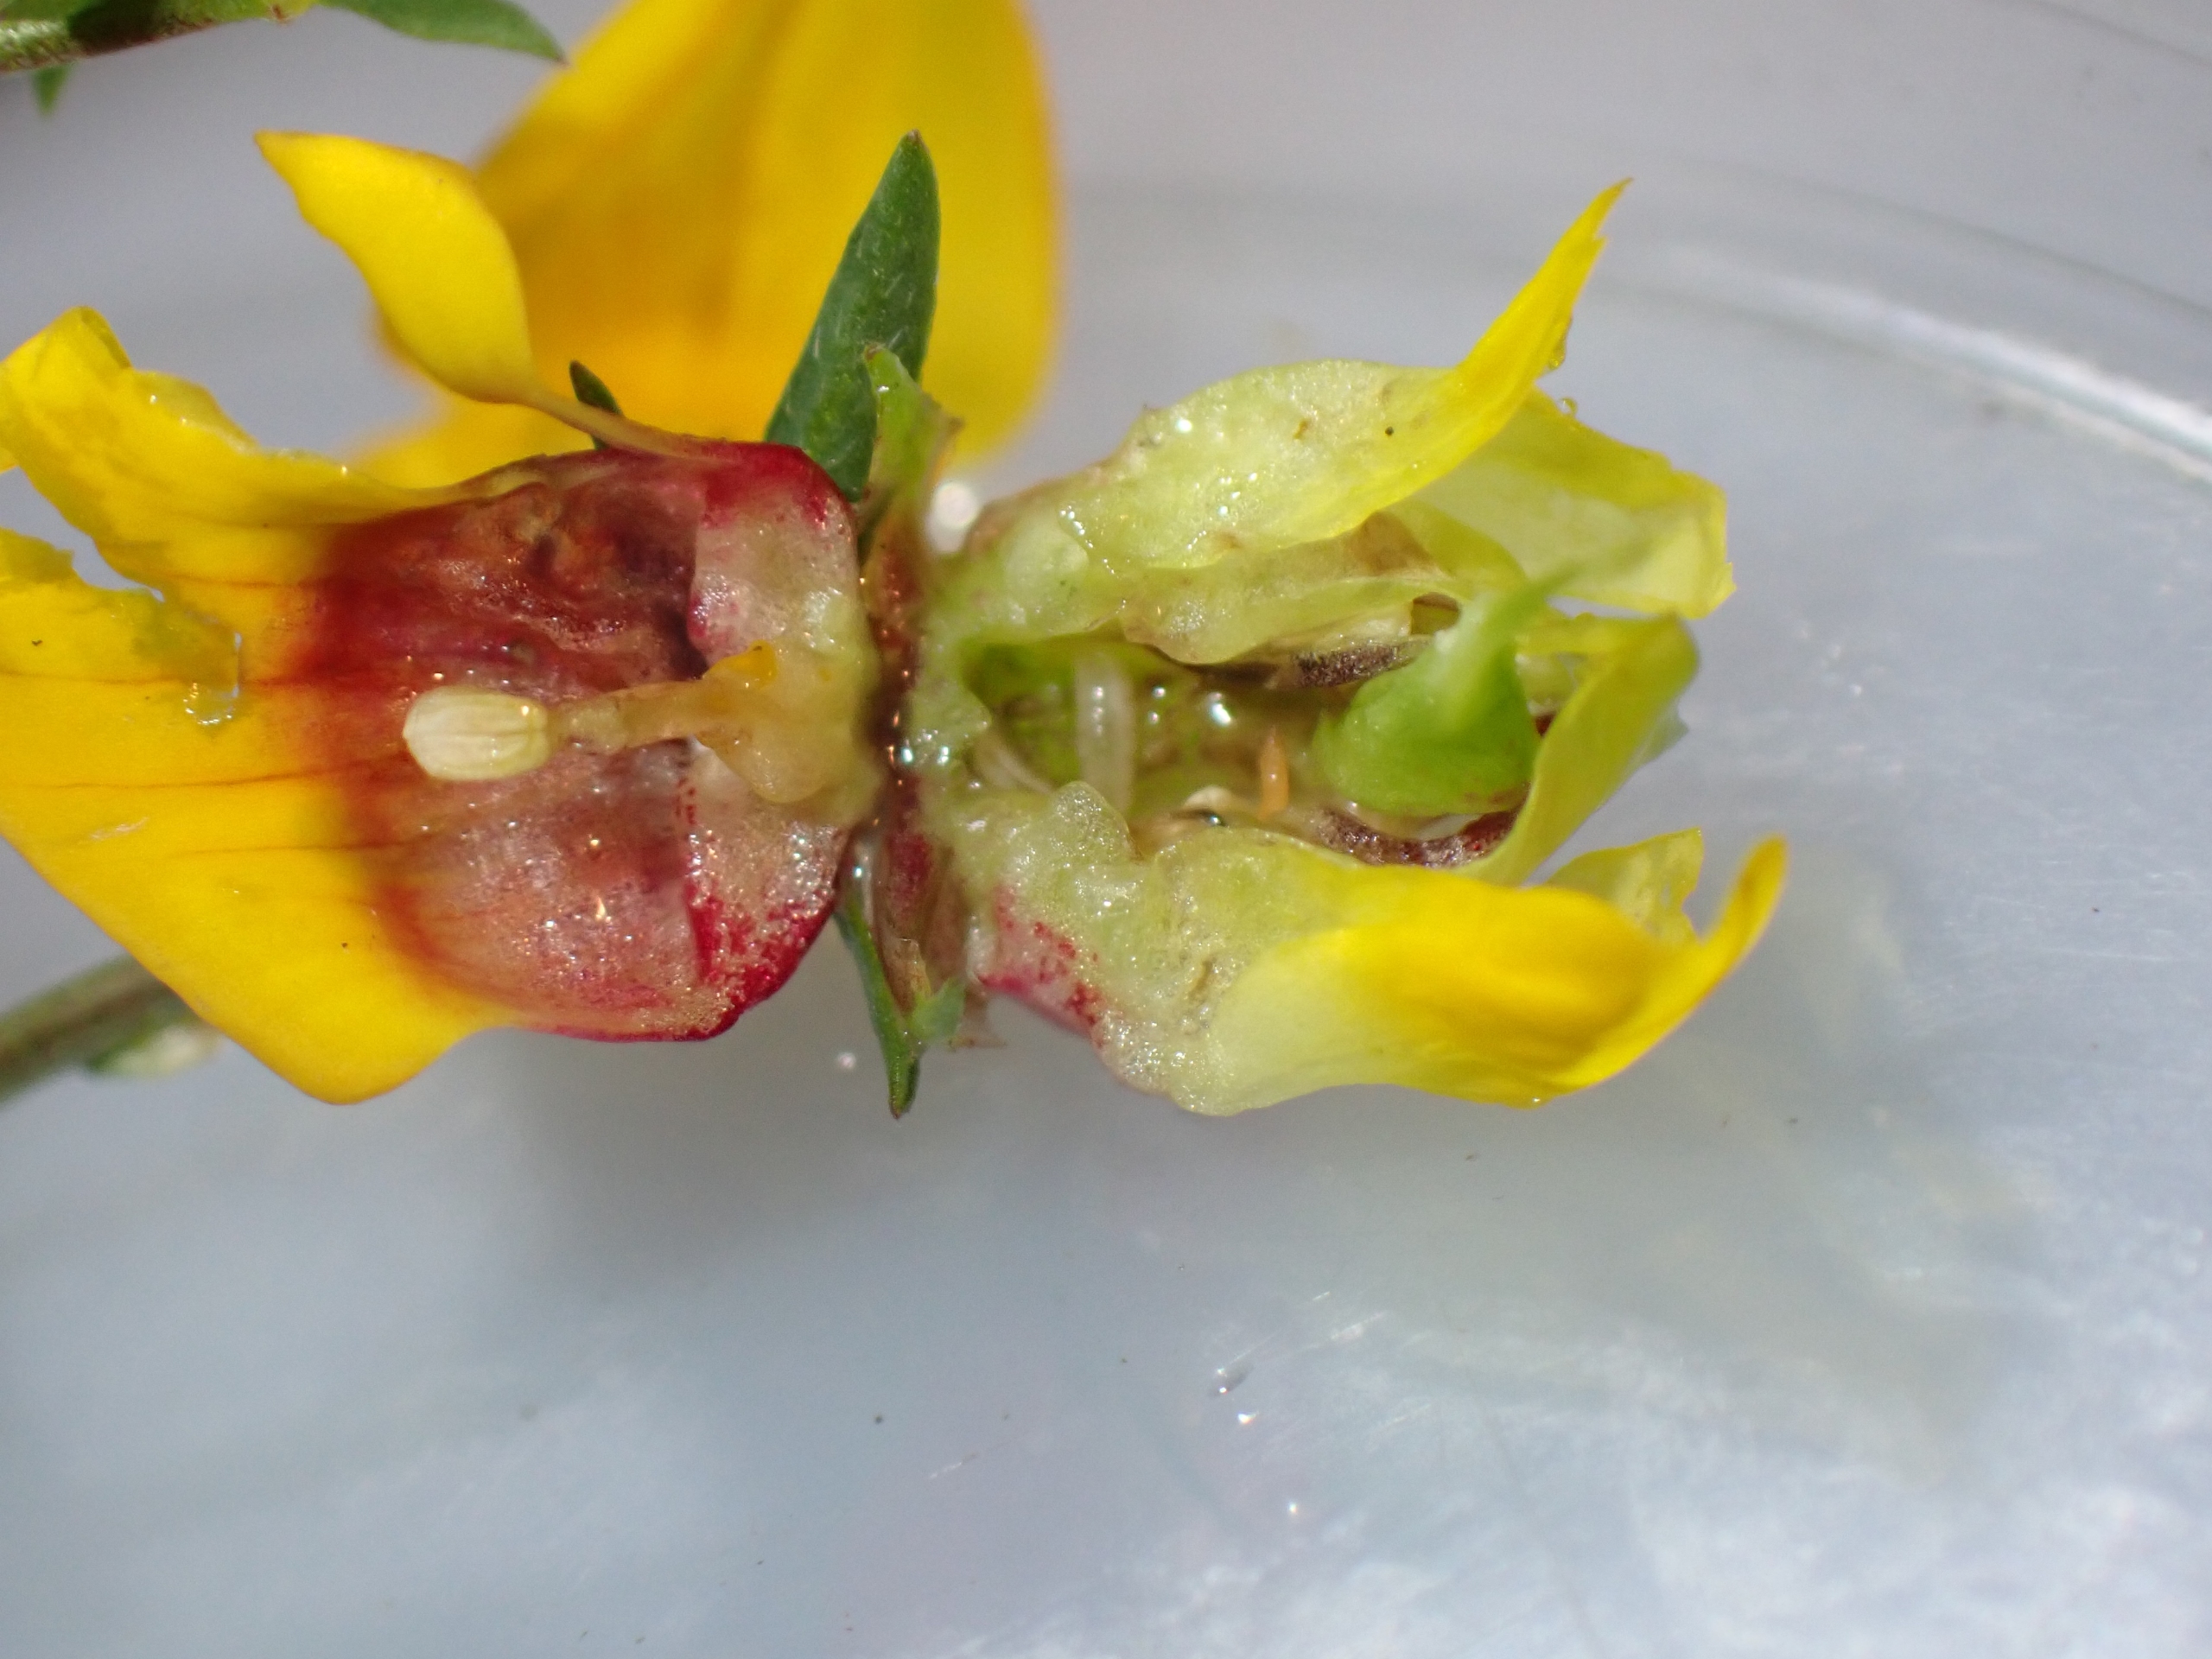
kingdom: Animalia
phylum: Arthropoda
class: Insecta
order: Diptera
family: Cecidomyiidae
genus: Contarinia
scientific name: Contarinia loti
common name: Kællingetandblomstgalmyg
